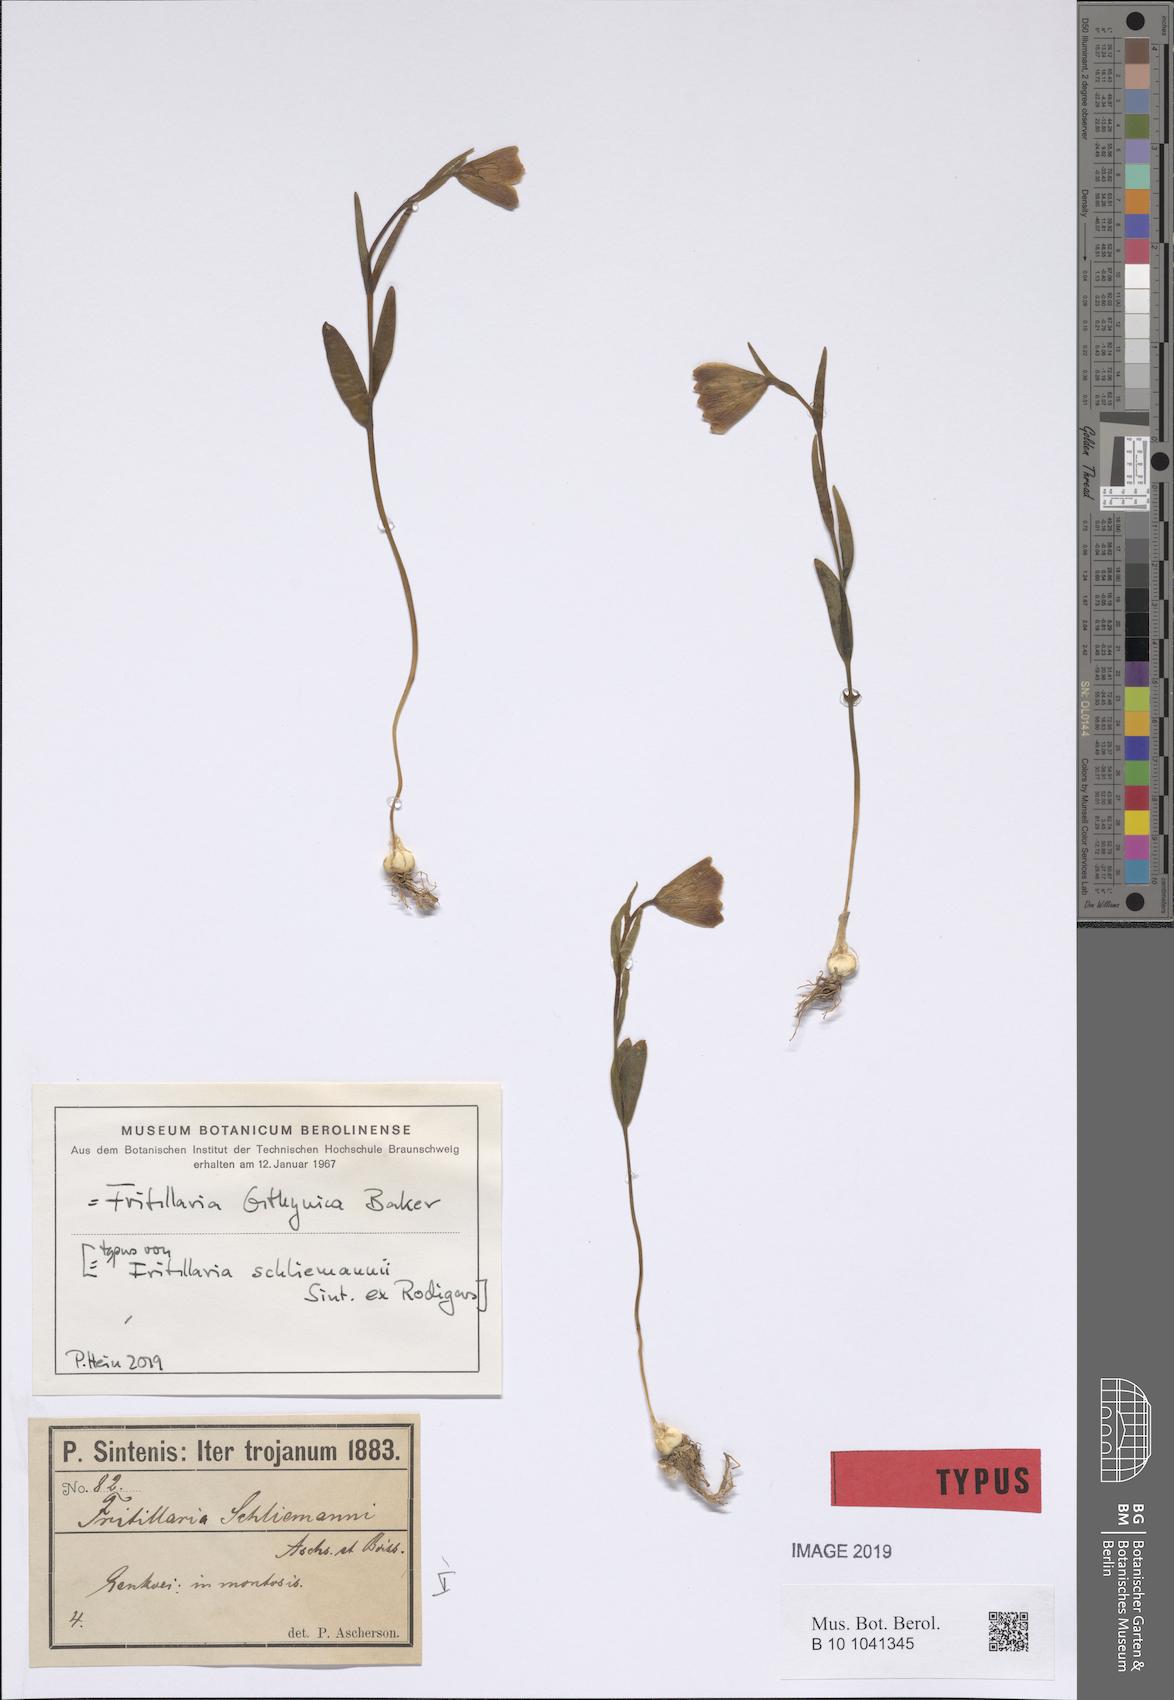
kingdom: Plantae
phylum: Tracheophyta
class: Liliopsida
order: Liliales
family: Liliaceae
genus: Fritillaria
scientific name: Fritillaria bithynica
